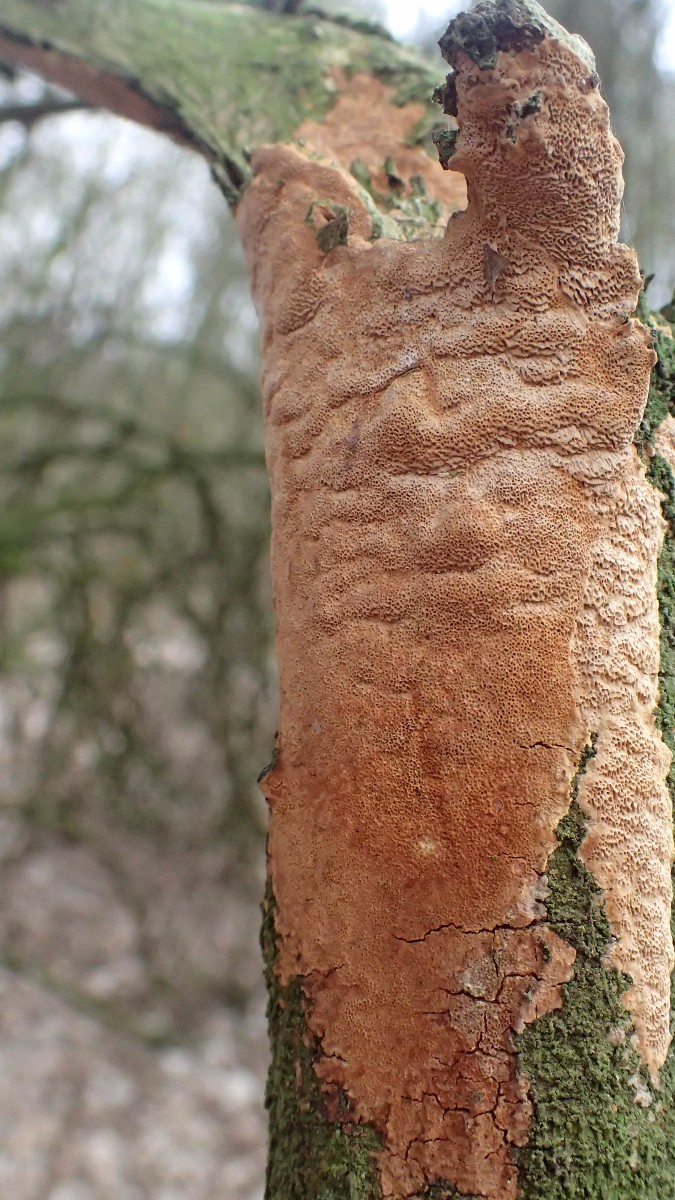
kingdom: Fungi
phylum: Basidiomycota
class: Agaricomycetes
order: Hymenochaetales
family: Hymenochaetaceae
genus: Fuscoporia
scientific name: Fuscoporia ferrea
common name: skorpe-ildporesvamp
